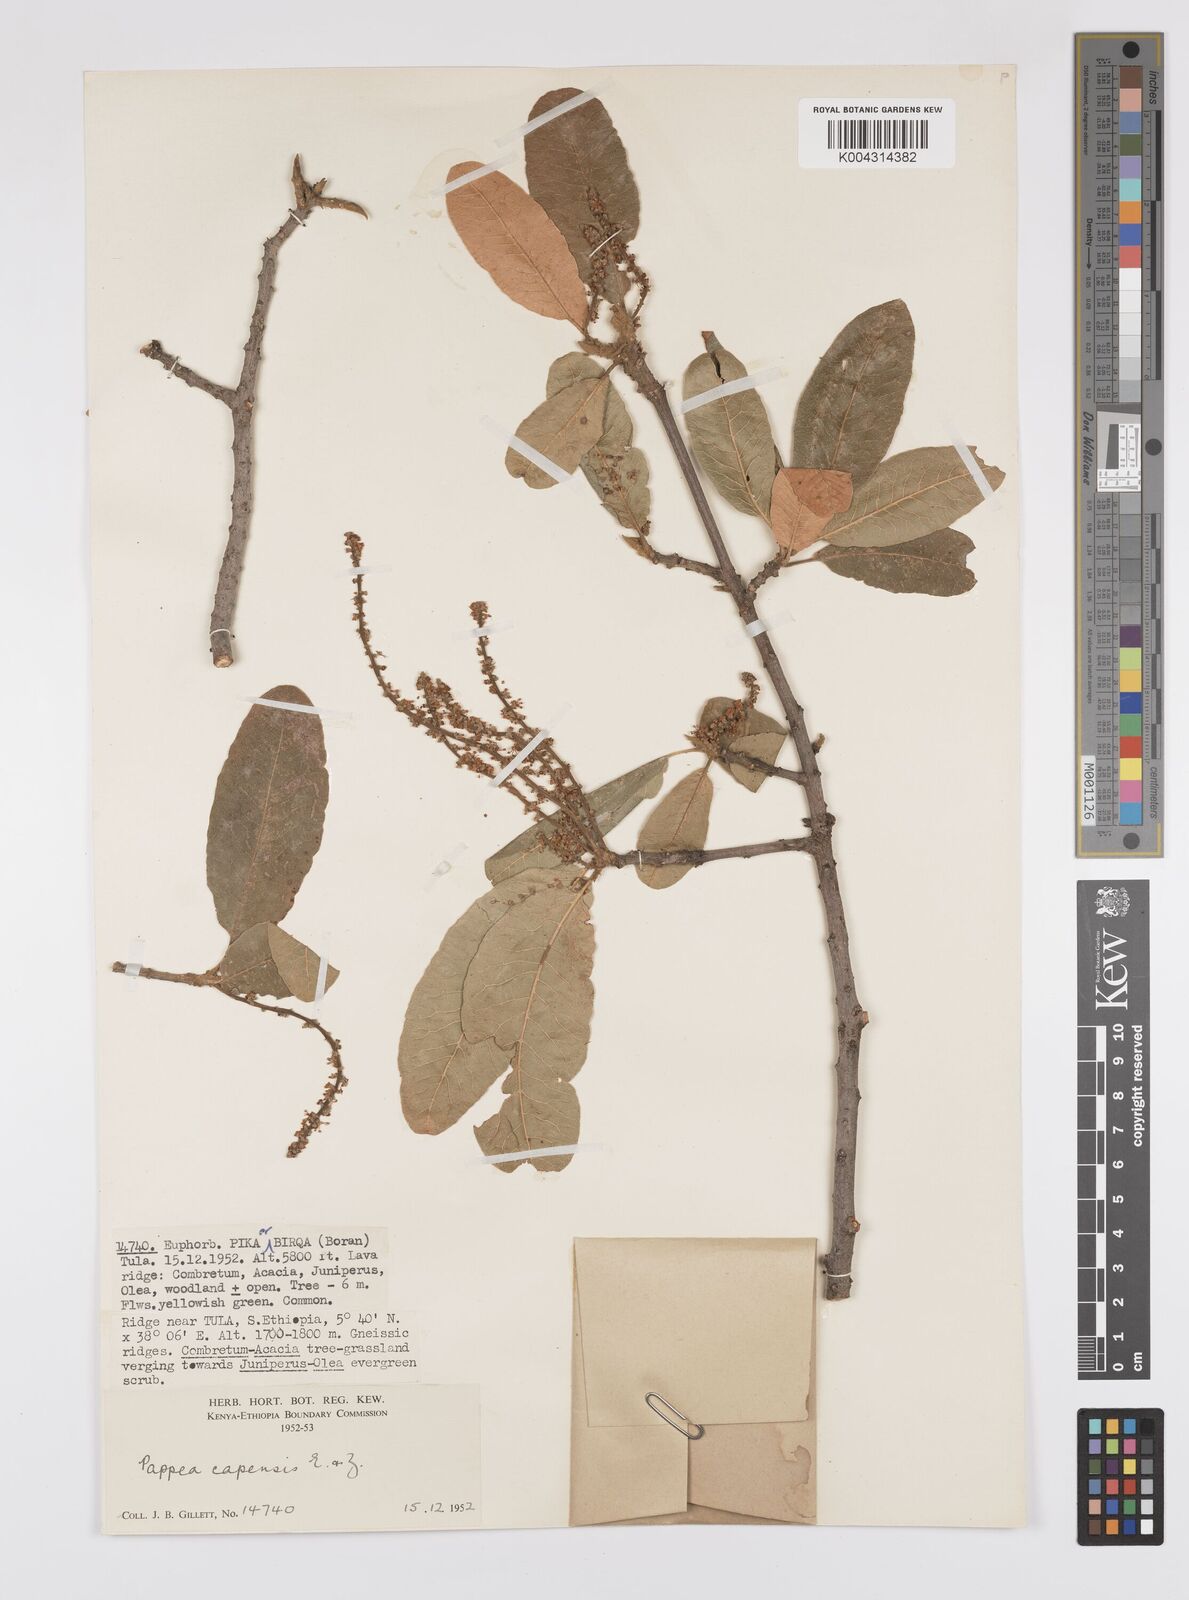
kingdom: Plantae
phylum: Tracheophyta
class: Magnoliopsida
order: Sapindales
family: Sapindaceae
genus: Pappea
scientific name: Pappea capensis
